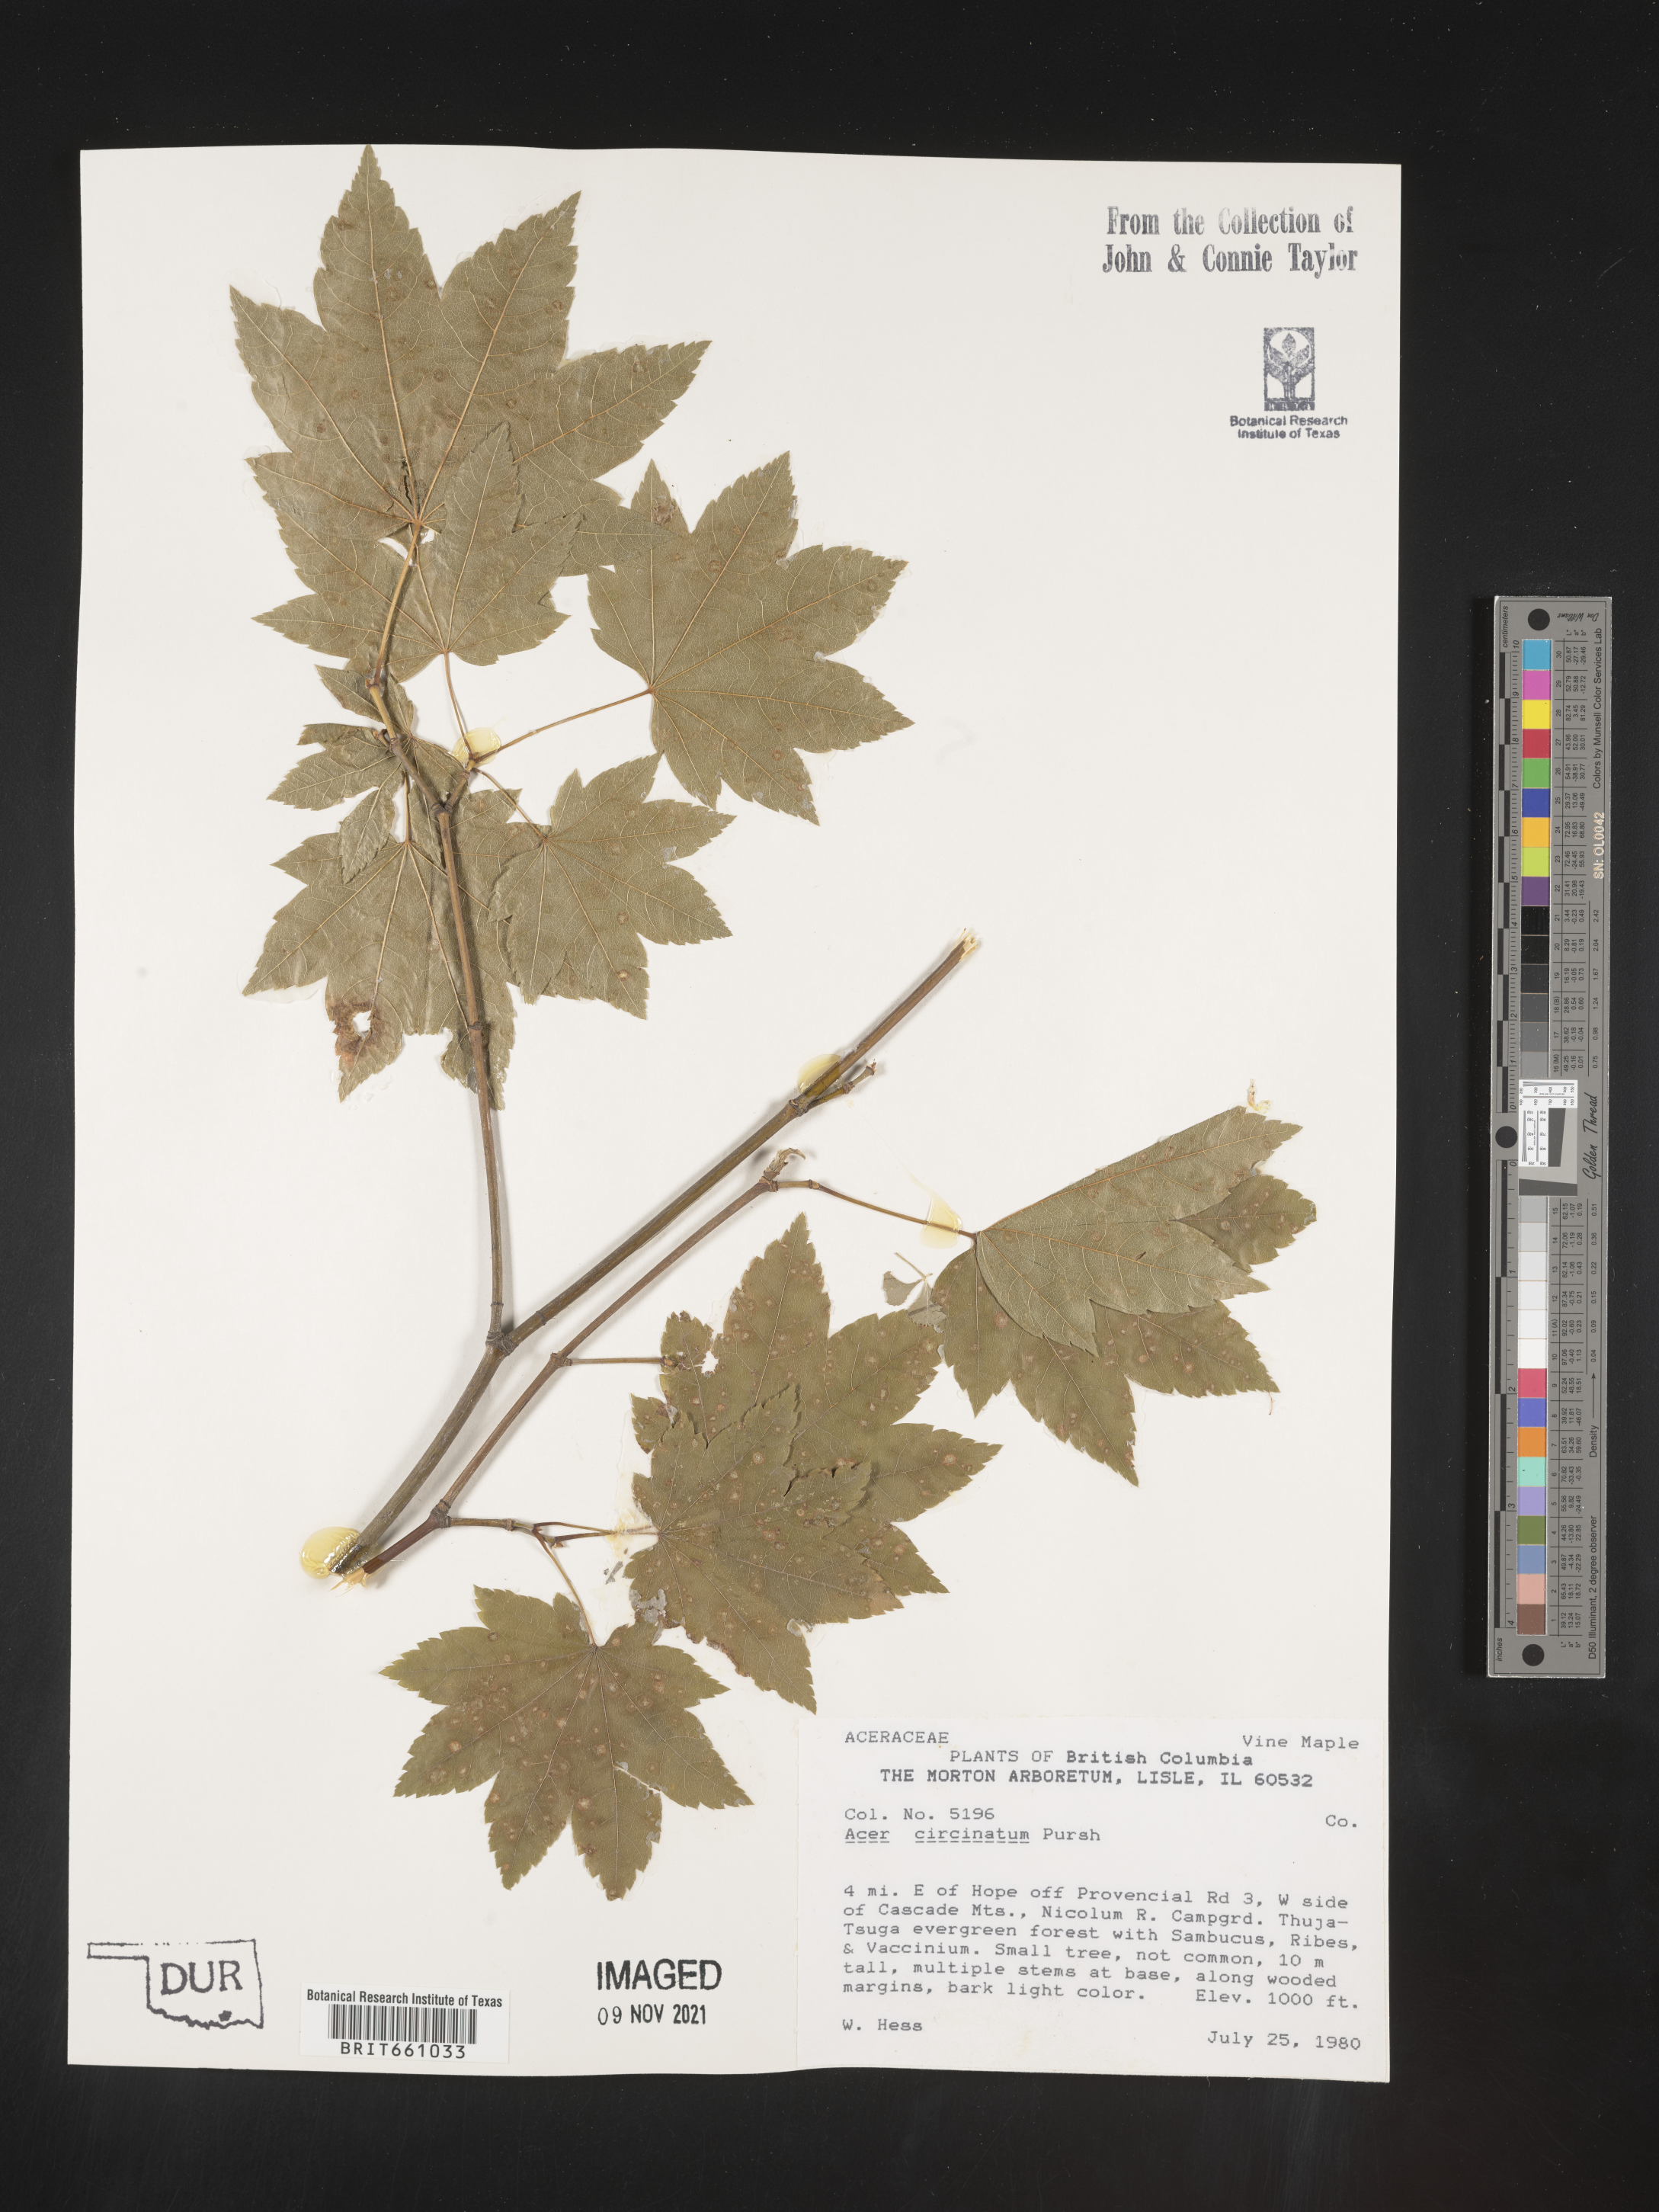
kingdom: Plantae
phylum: Tracheophyta
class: Magnoliopsida
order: Sapindales
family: Sapindaceae
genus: Acer
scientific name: Acer circinatum
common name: Vine maple
